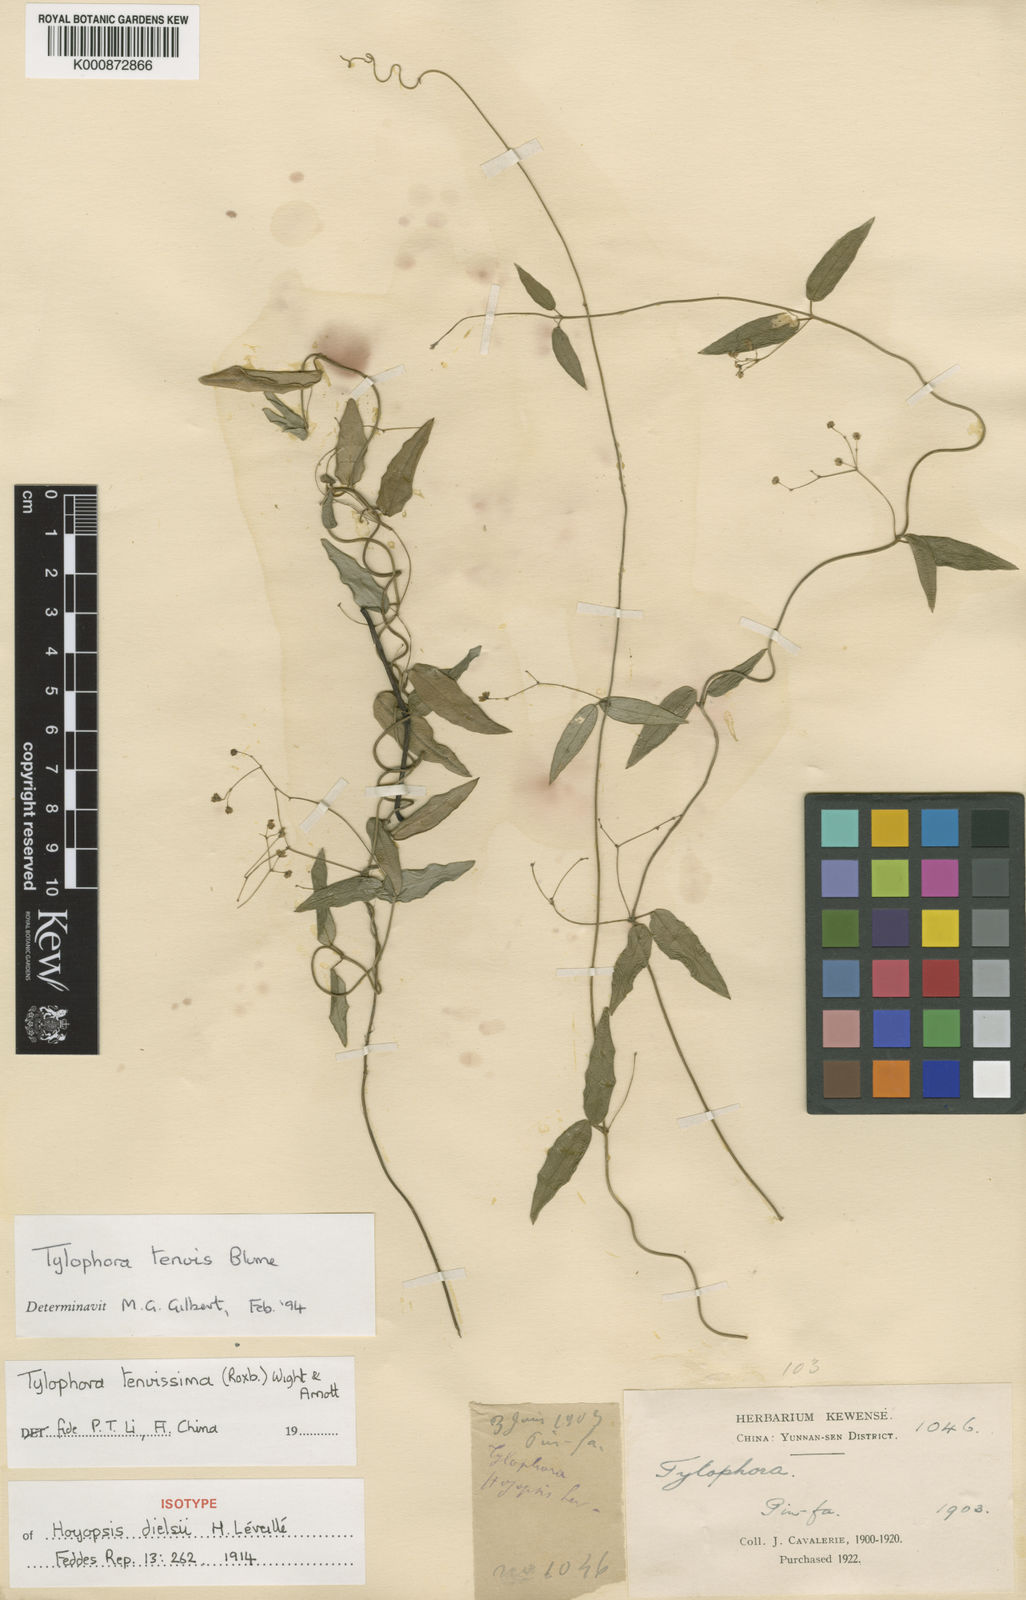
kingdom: Plantae
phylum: Tracheophyta
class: Magnoliopsida
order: Gentianales
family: Apocynaceae
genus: Vincetoxicum
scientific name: Vincetoxicum flexuosum
